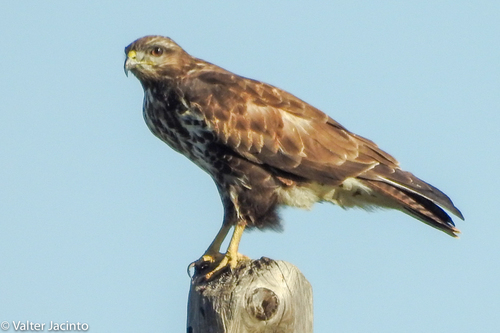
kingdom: Animalia
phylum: Chordata
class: Aves
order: Accipitriformes
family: Accipitridae
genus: Buteo
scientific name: Buteo buteo
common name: Common buzzard
